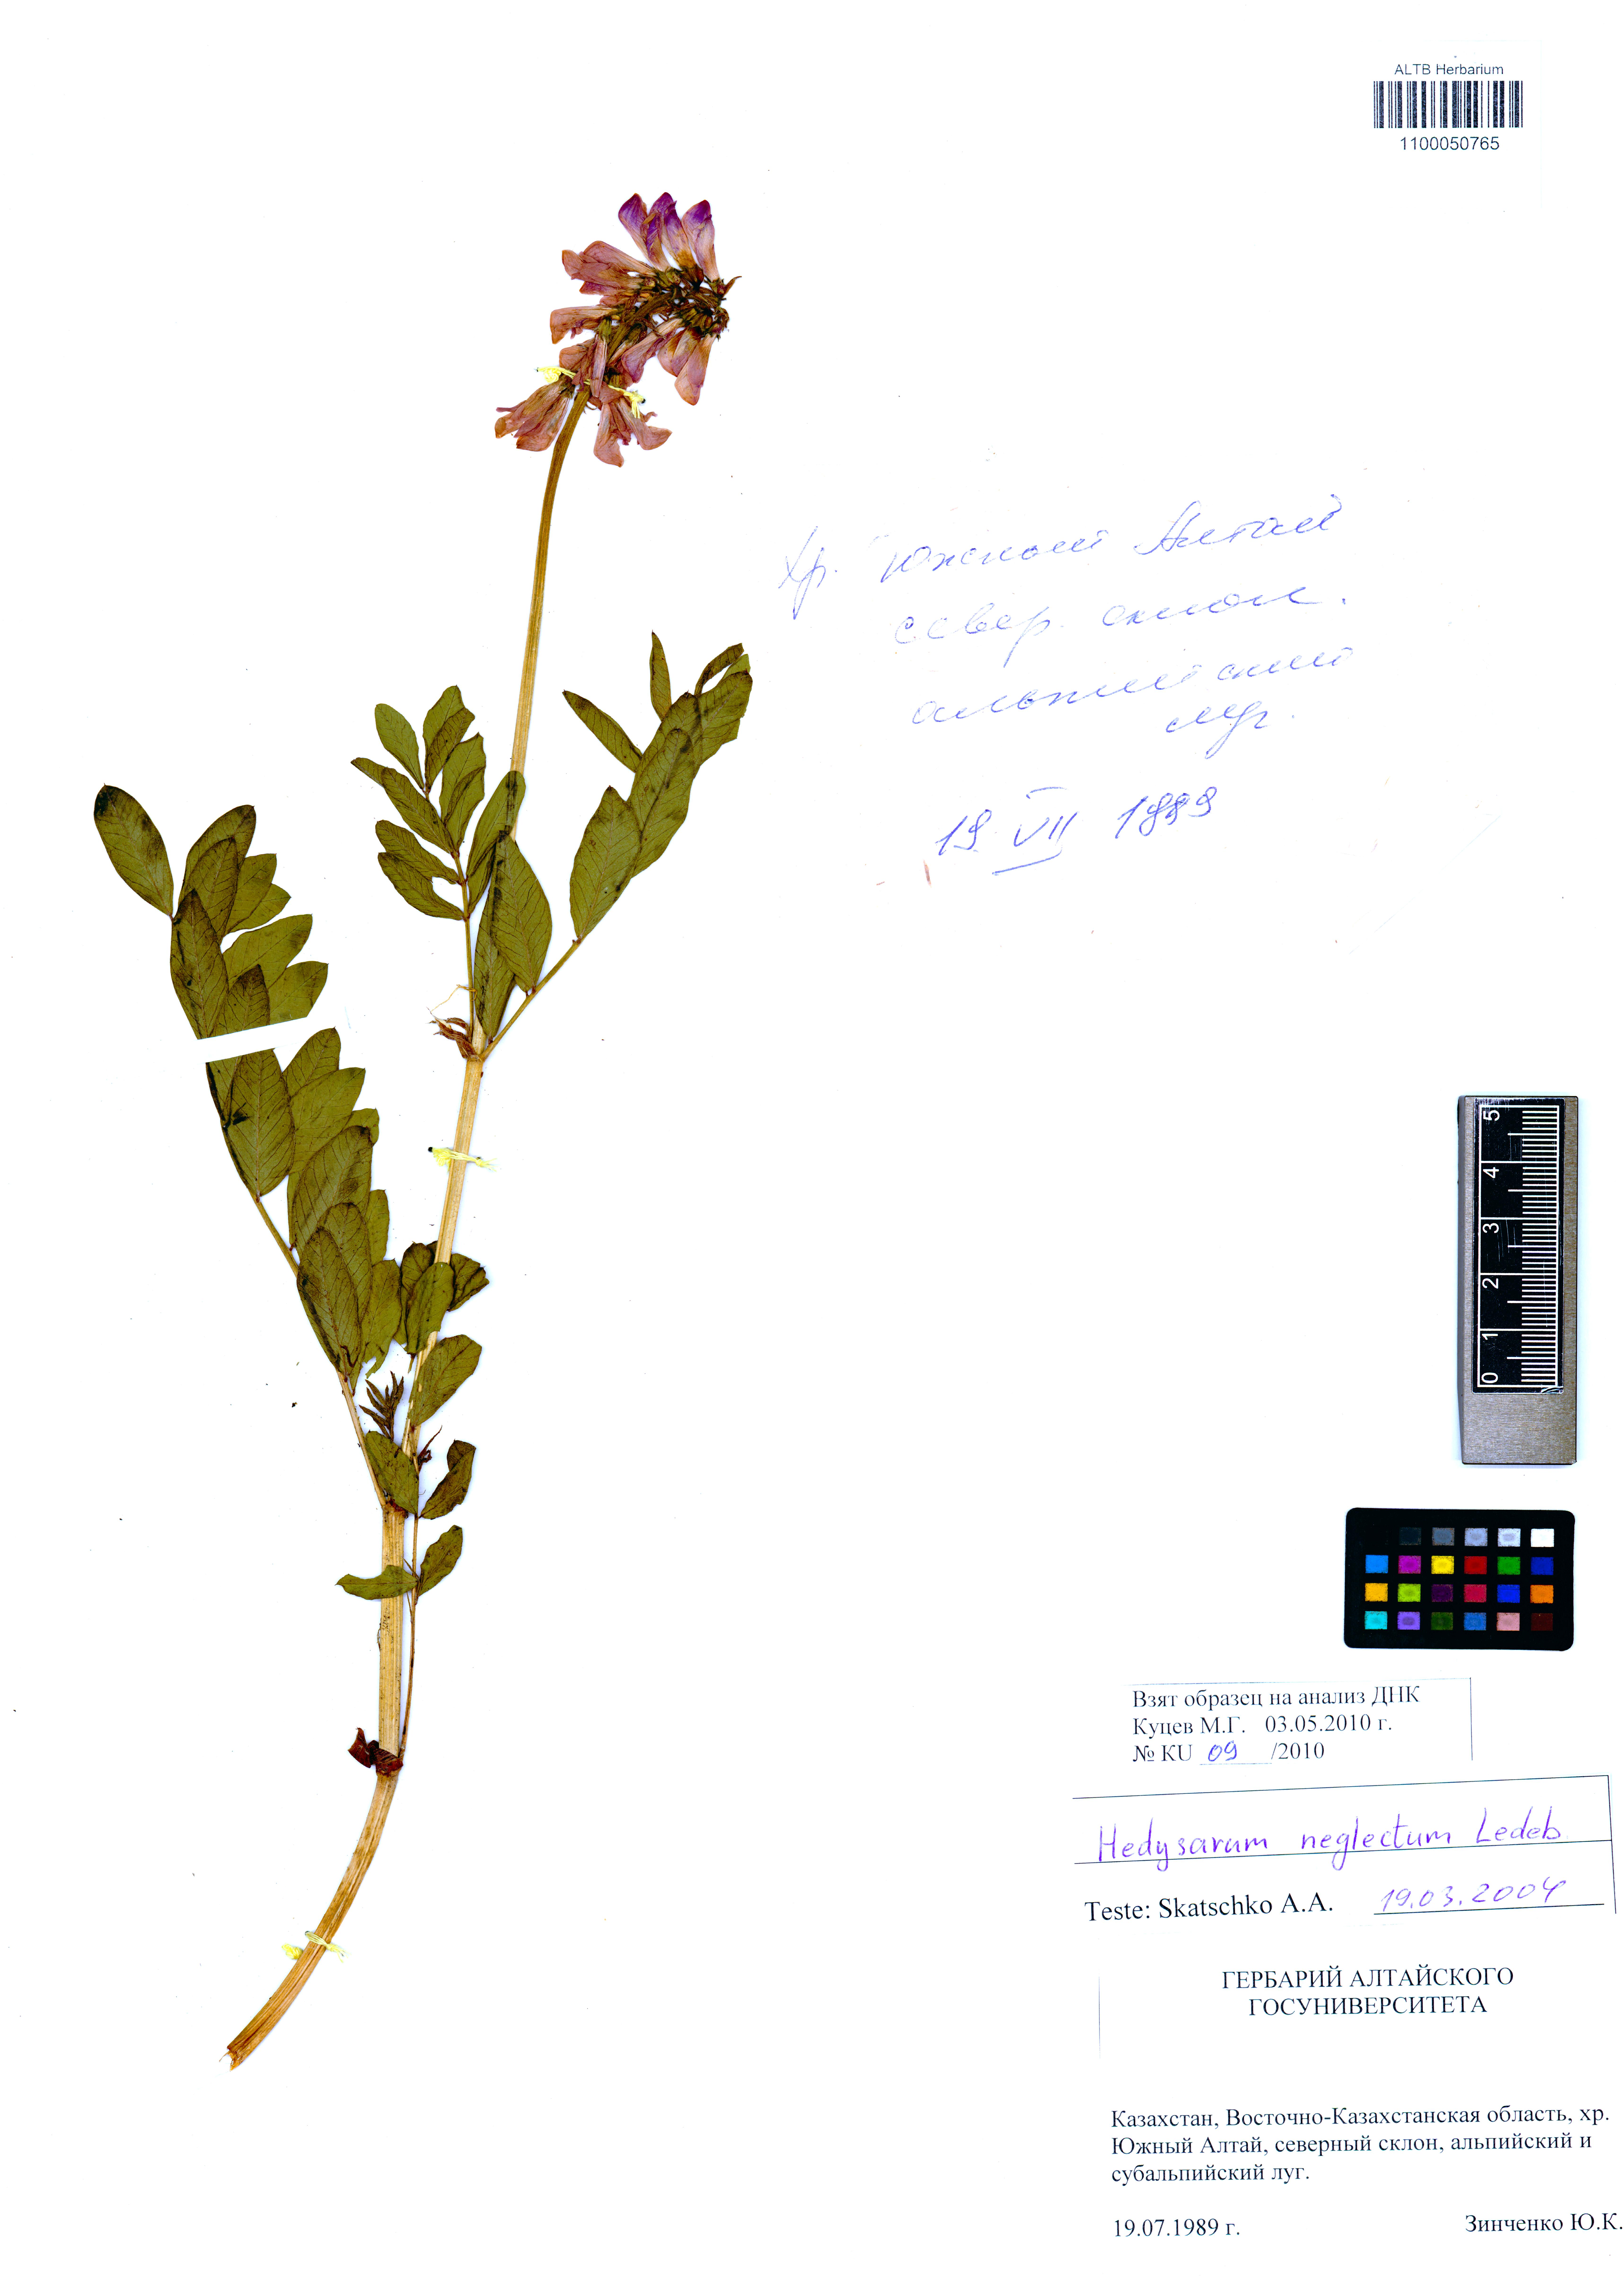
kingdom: Plantae
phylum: Tracheophyta
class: Magnoliopsida
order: Fabales
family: Fabaceae
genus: Hedysarum
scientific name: Hedysarum neglectum
